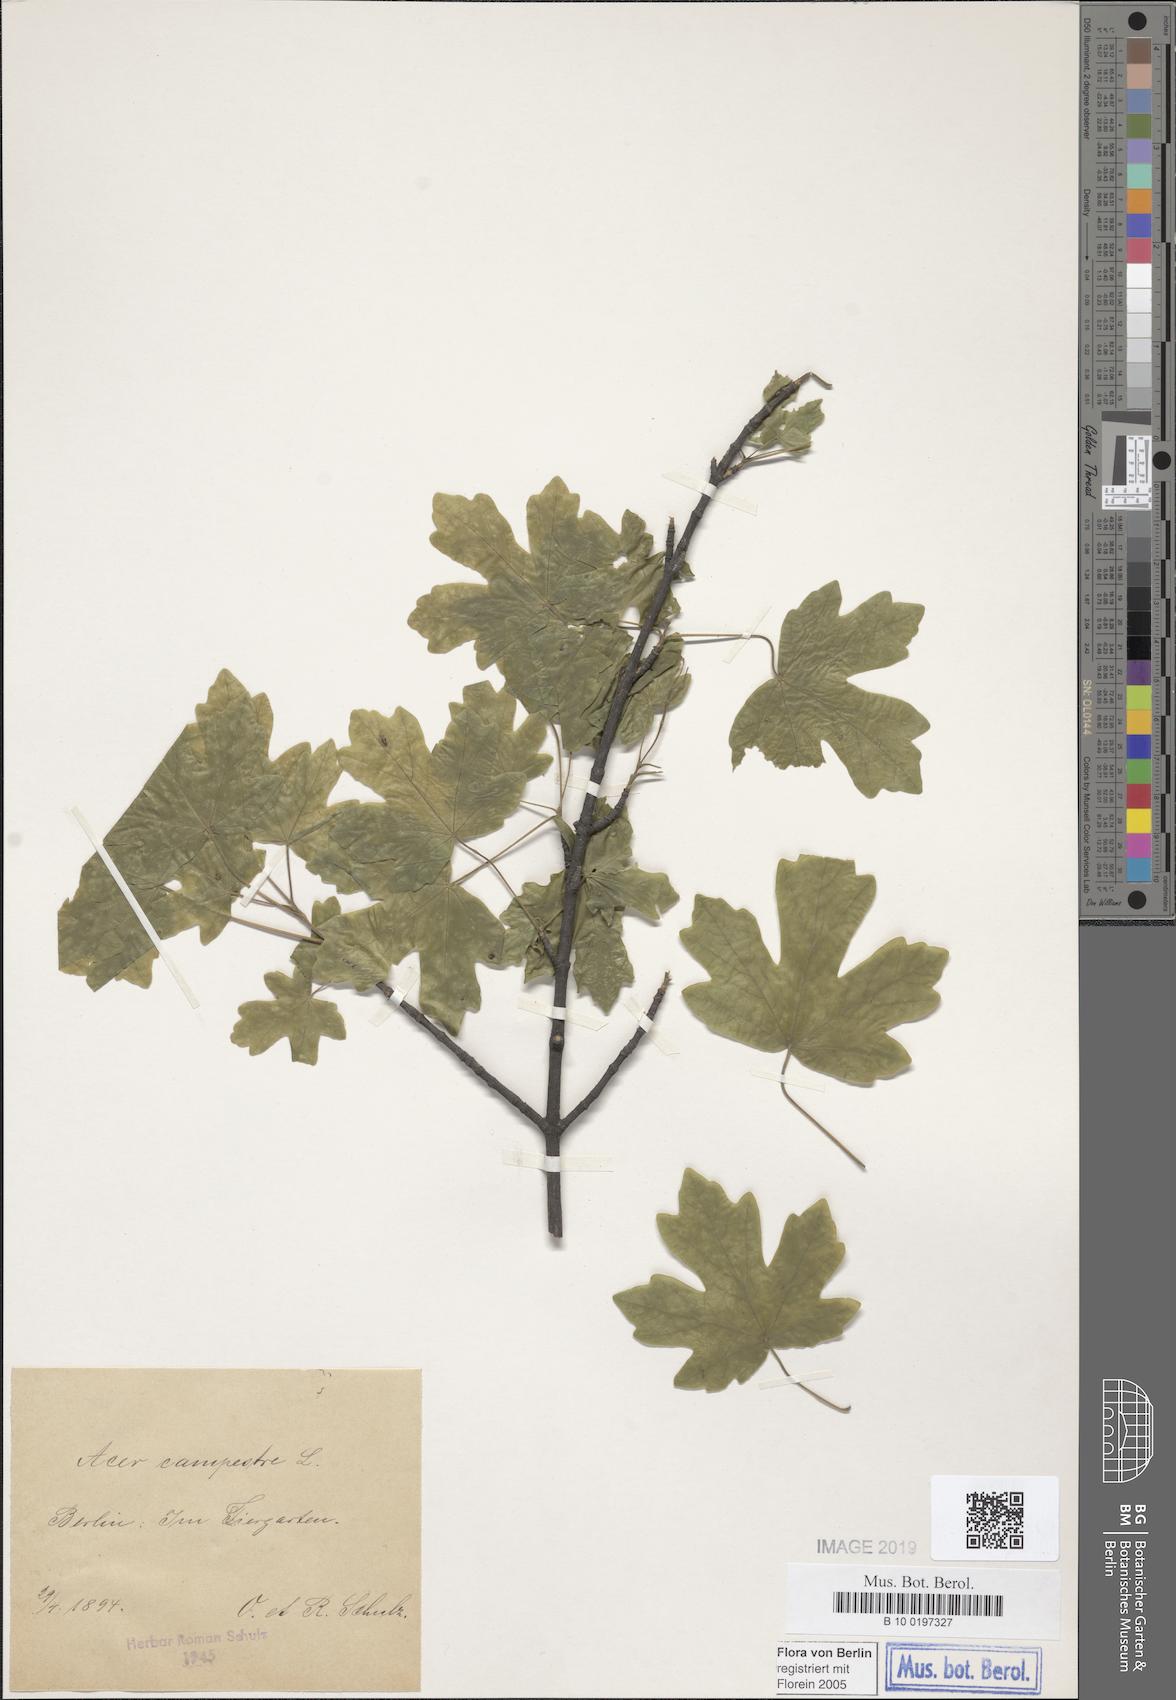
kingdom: Plantae
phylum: Tracheophyta
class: Magnoliopsida
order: Sapindales
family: Sapindaceae
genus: Acer
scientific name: Acer campestre
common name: Field maple
